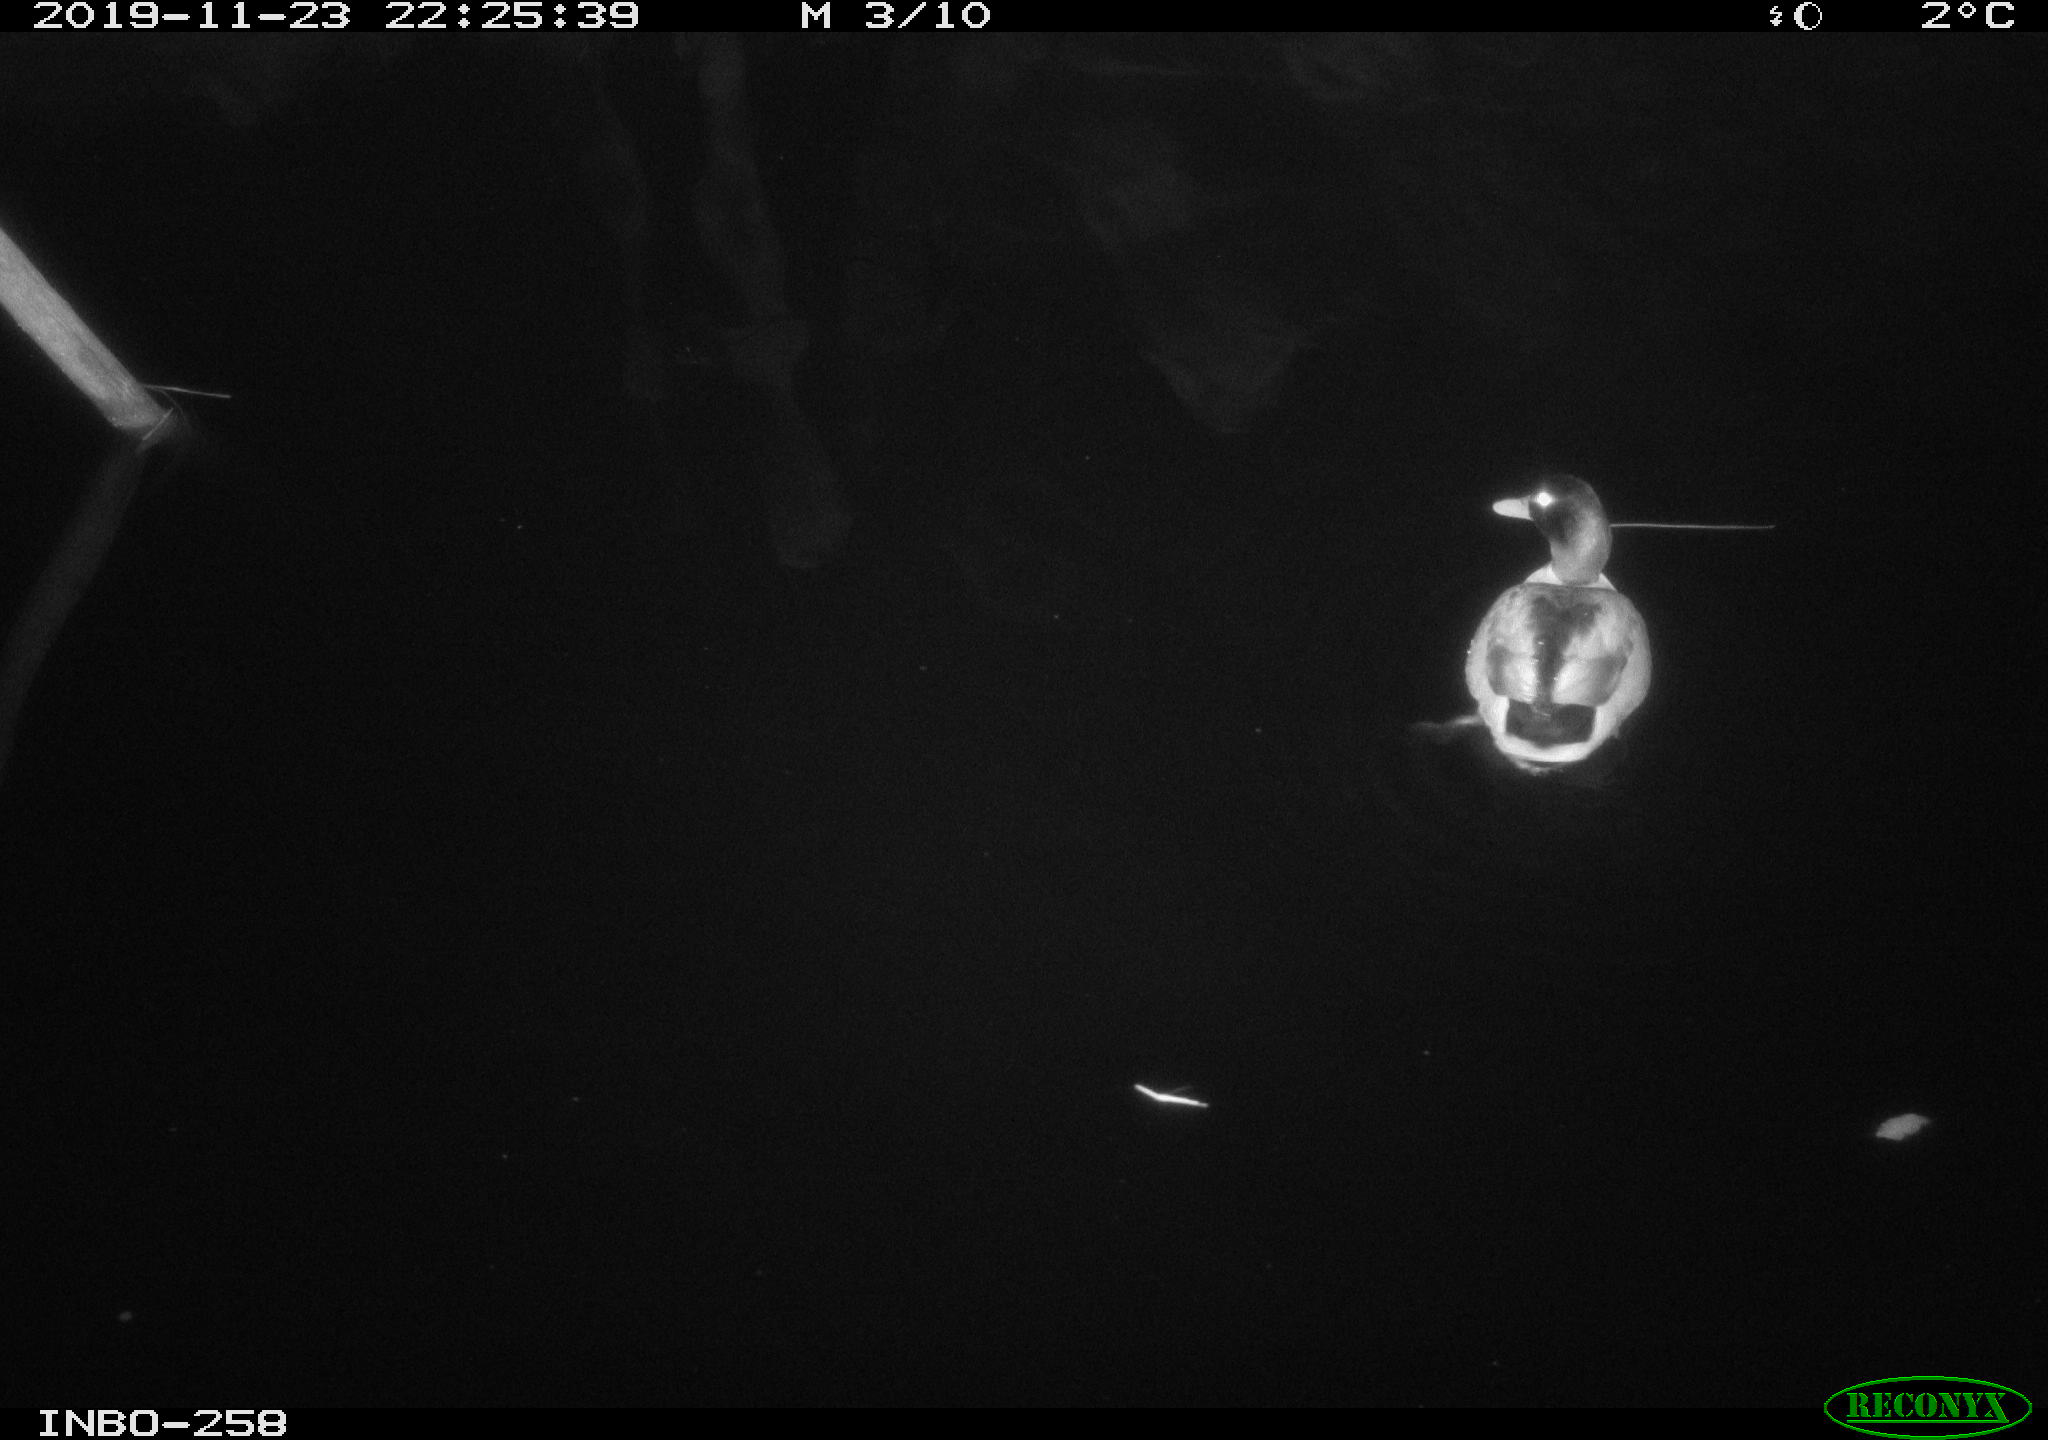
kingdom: Animalia
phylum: Chordata
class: Aves
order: Anseriformes
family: Anatidae
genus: Anas
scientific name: Anas platyrhynchos
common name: Mallard
